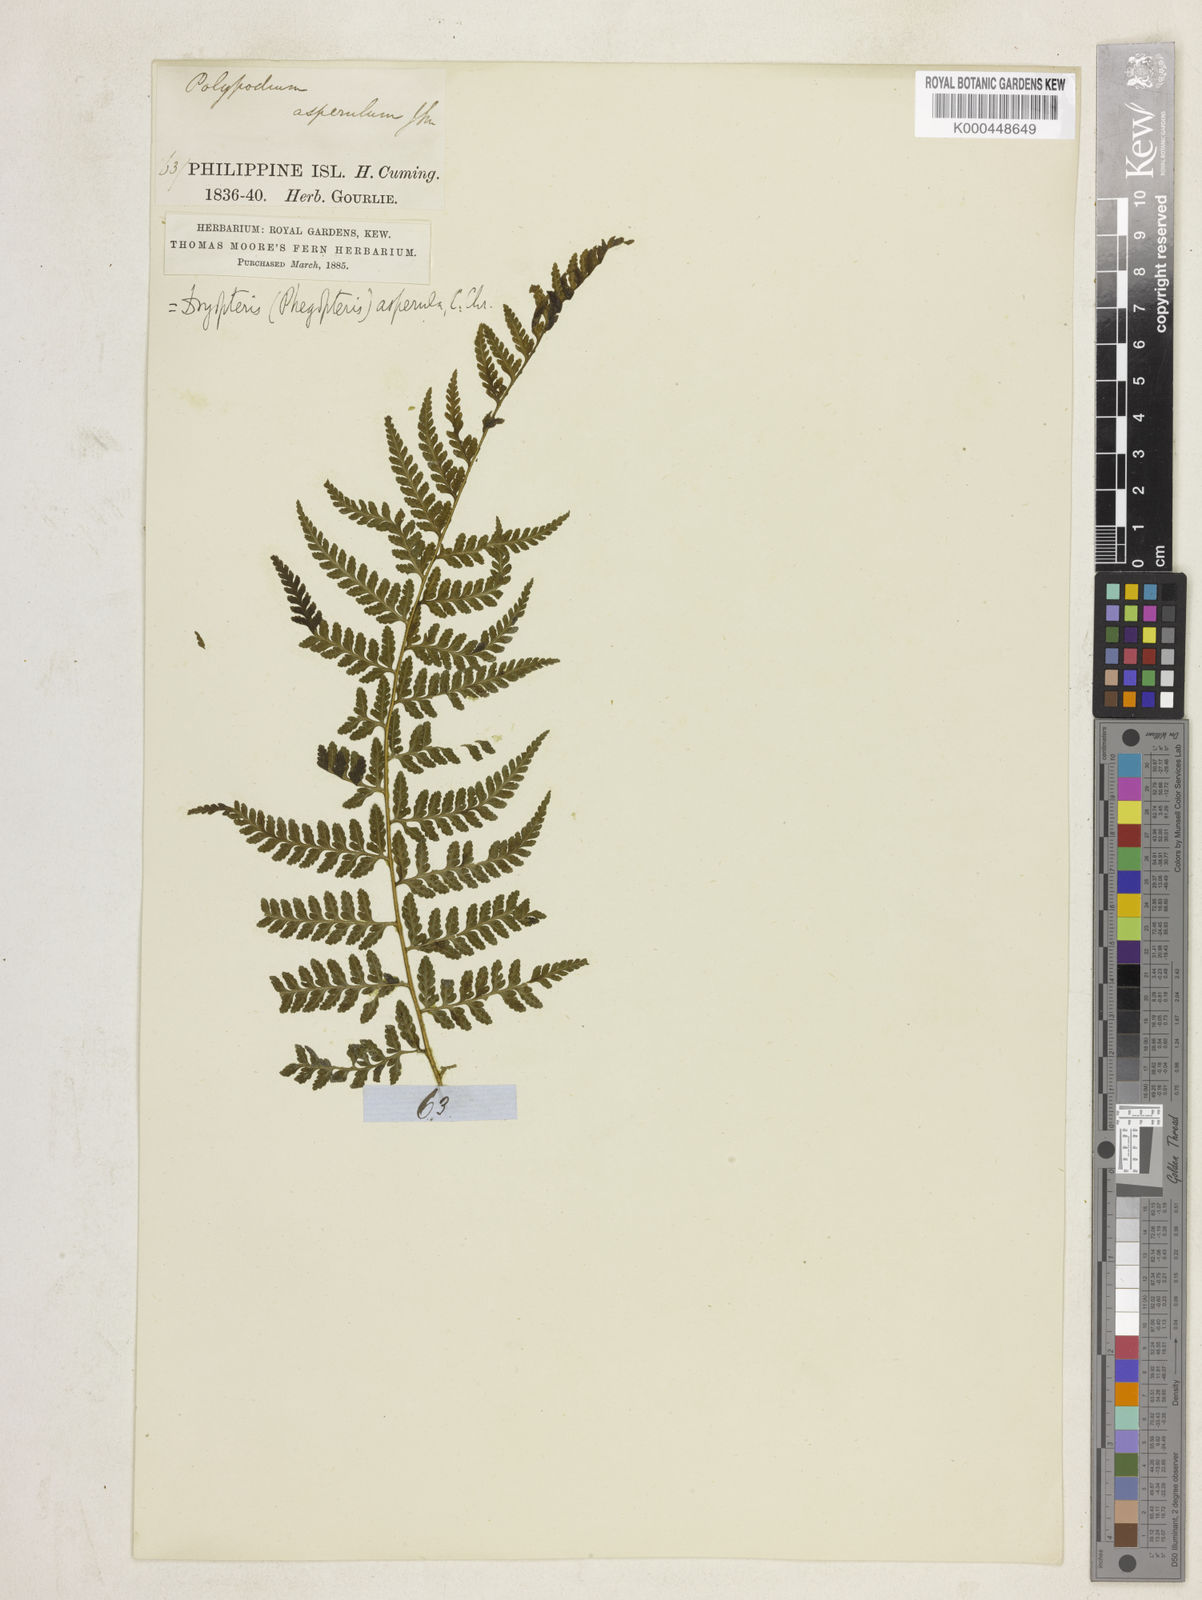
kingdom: Plantae
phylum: Tracheophyta
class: Polypodiopsida
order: Polypodiales
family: Dennstaedtiaceae
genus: Microlepia
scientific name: Microlepia
